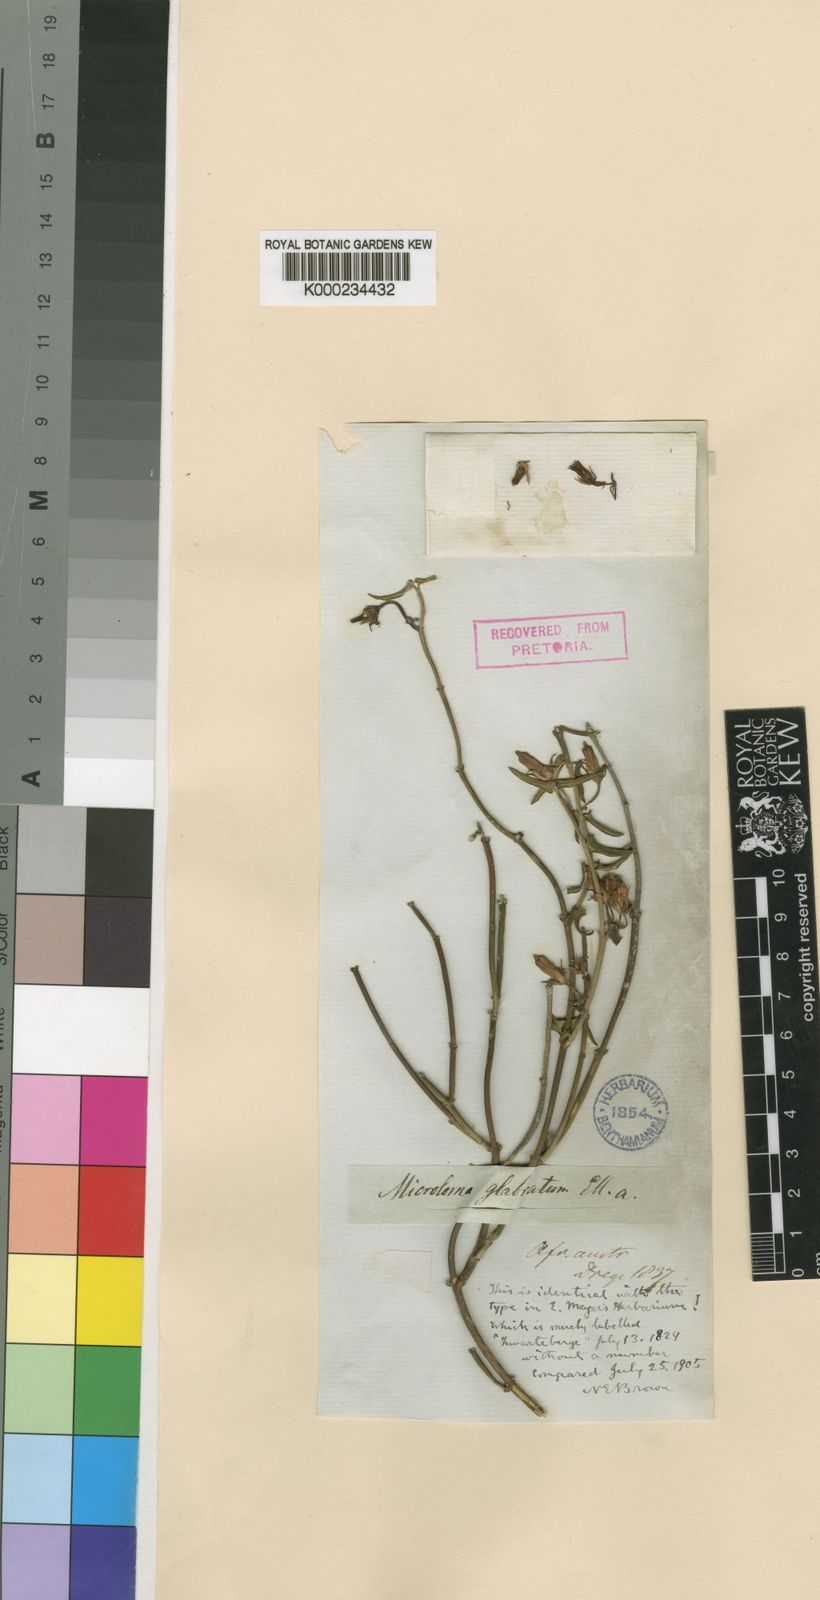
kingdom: Plantae
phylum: Tracheophyta
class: Magnoliopsida
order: Gentianales
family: Apocynaceae
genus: Microloma
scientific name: Microloma sagittatum
